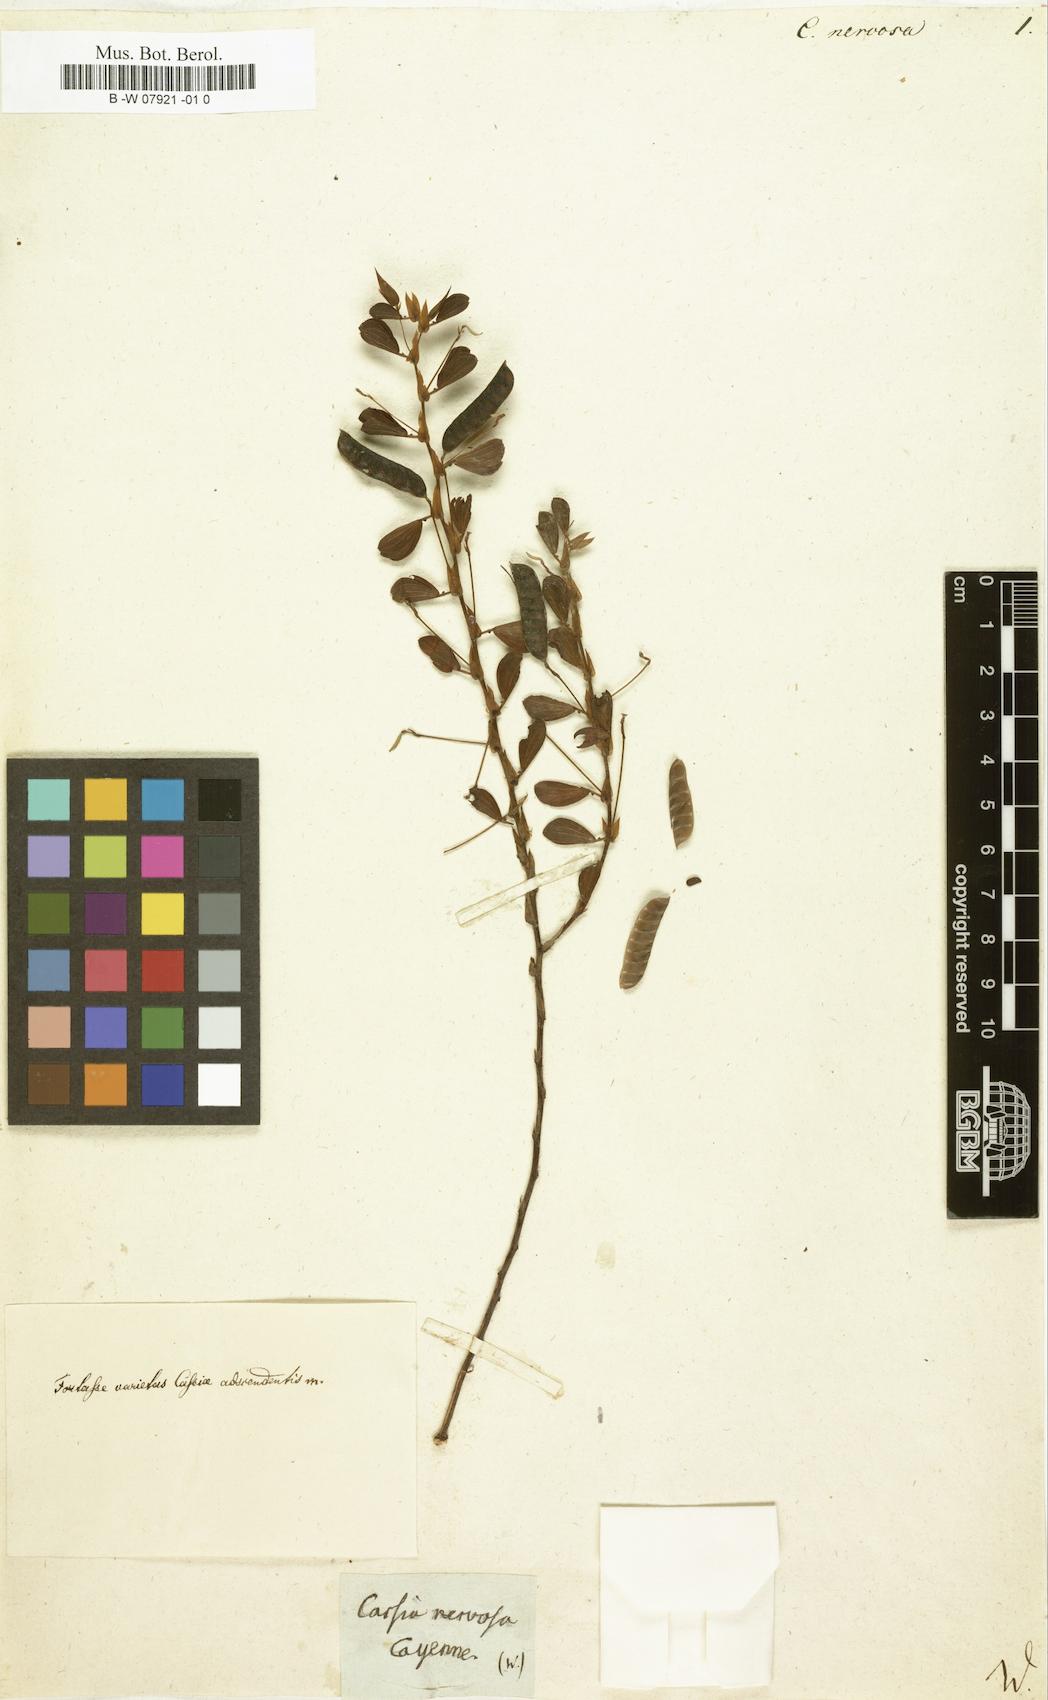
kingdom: Plantae
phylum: Tracheophyta
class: Magnoliopsida
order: Fabales
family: Fabaceae
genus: Senna
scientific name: Senna macranthera
